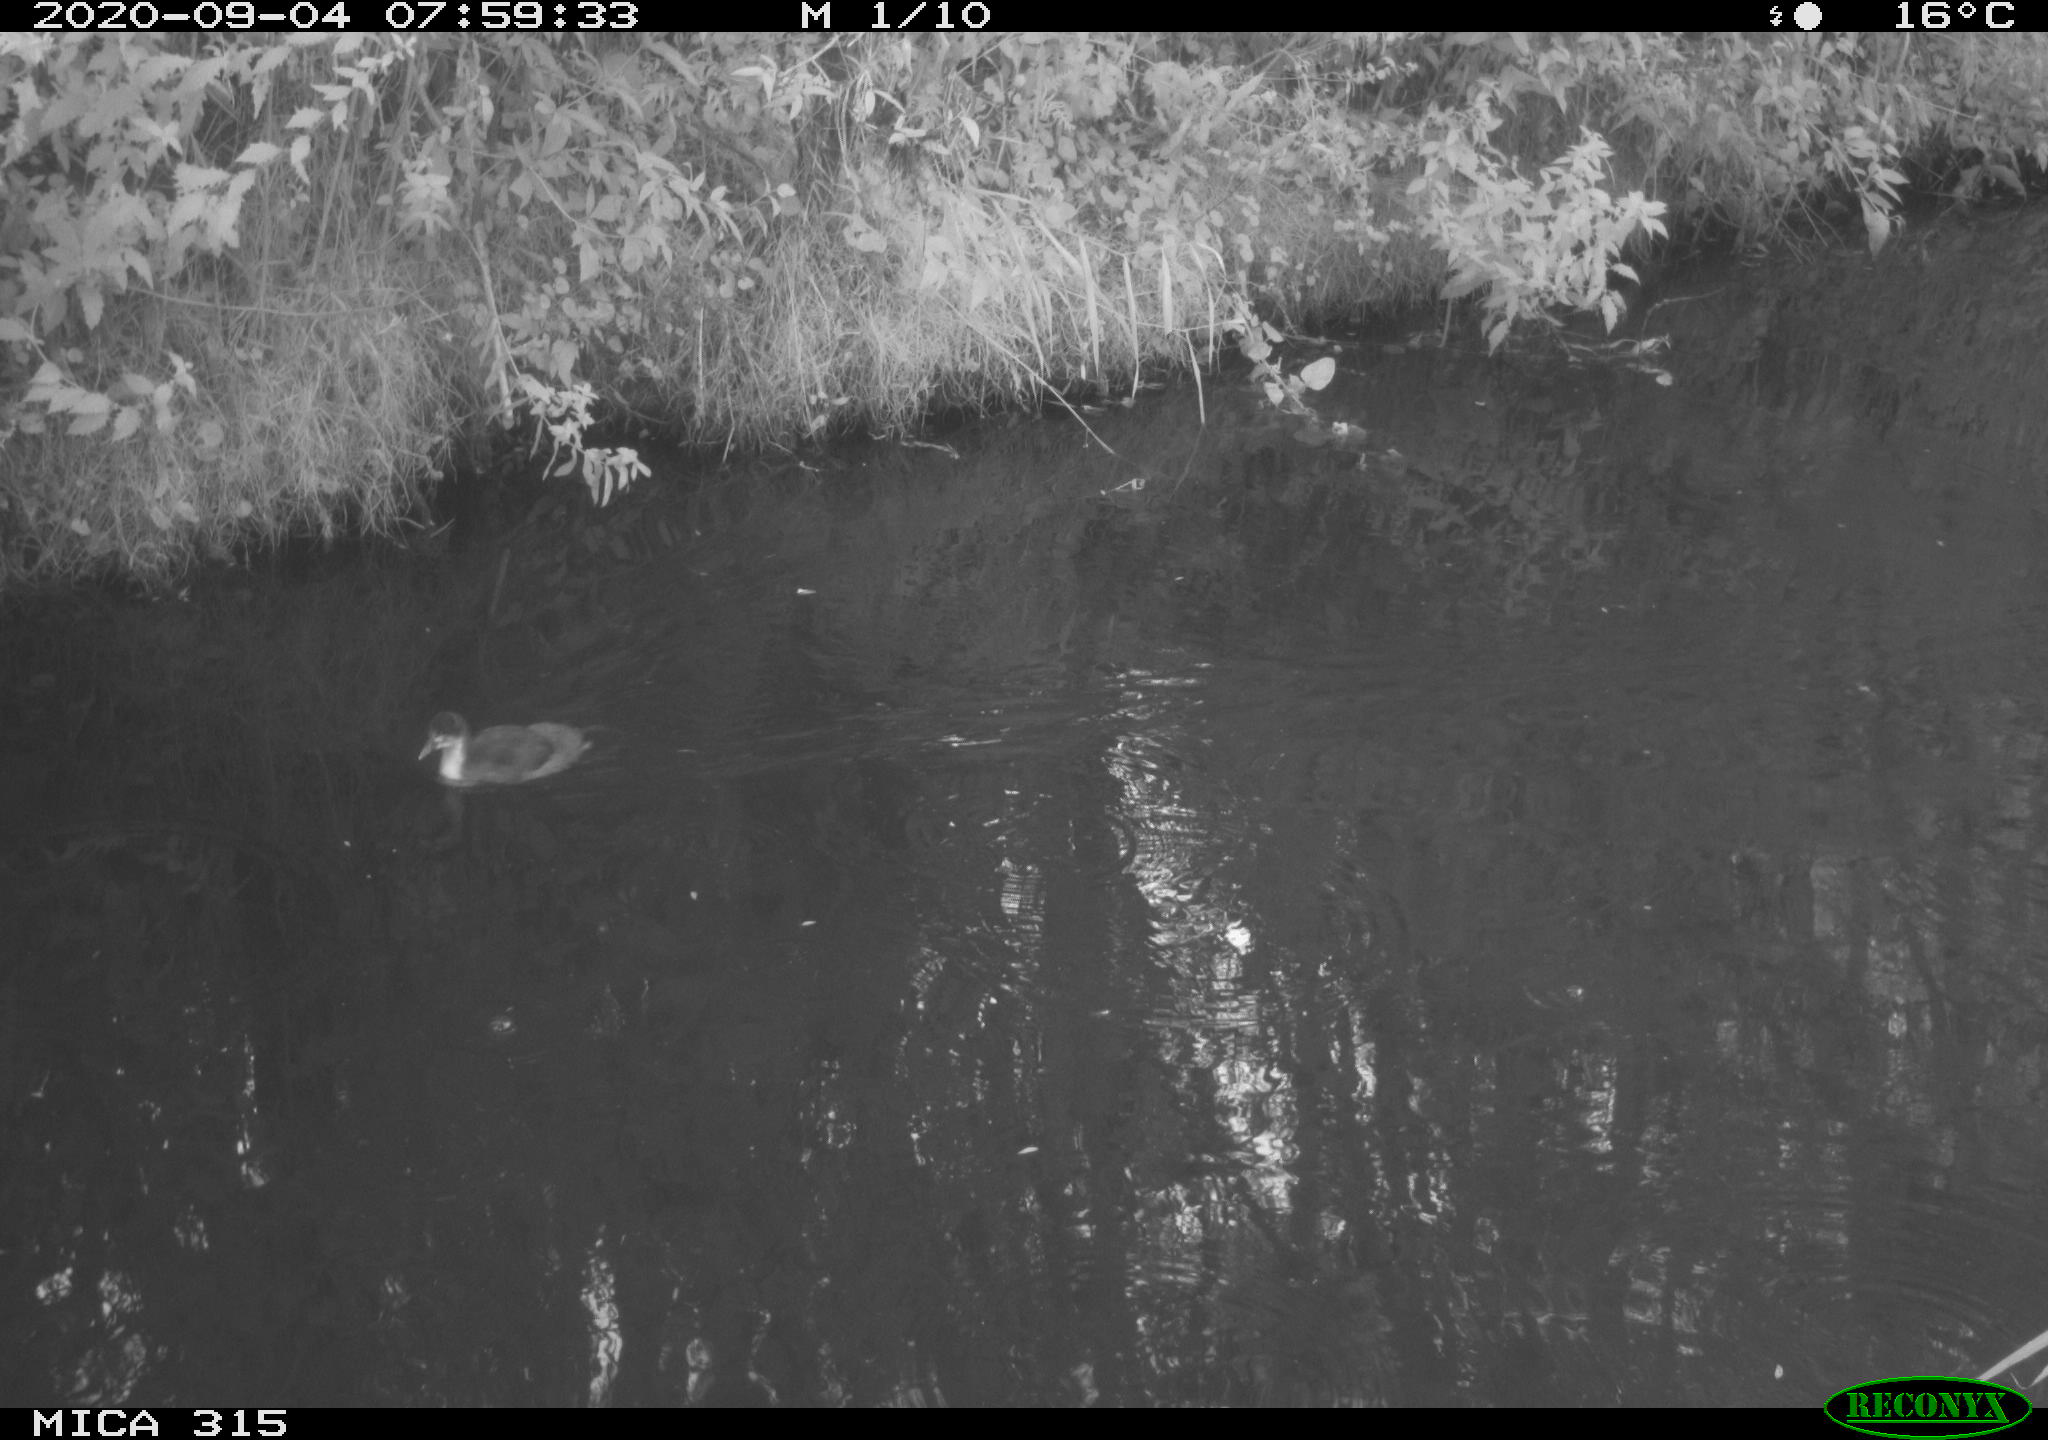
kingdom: Animalia
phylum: Chordata
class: Aves
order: Anseriformes
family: Anatidae
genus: Anas
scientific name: Anas platyrhynchos
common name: Mallard
